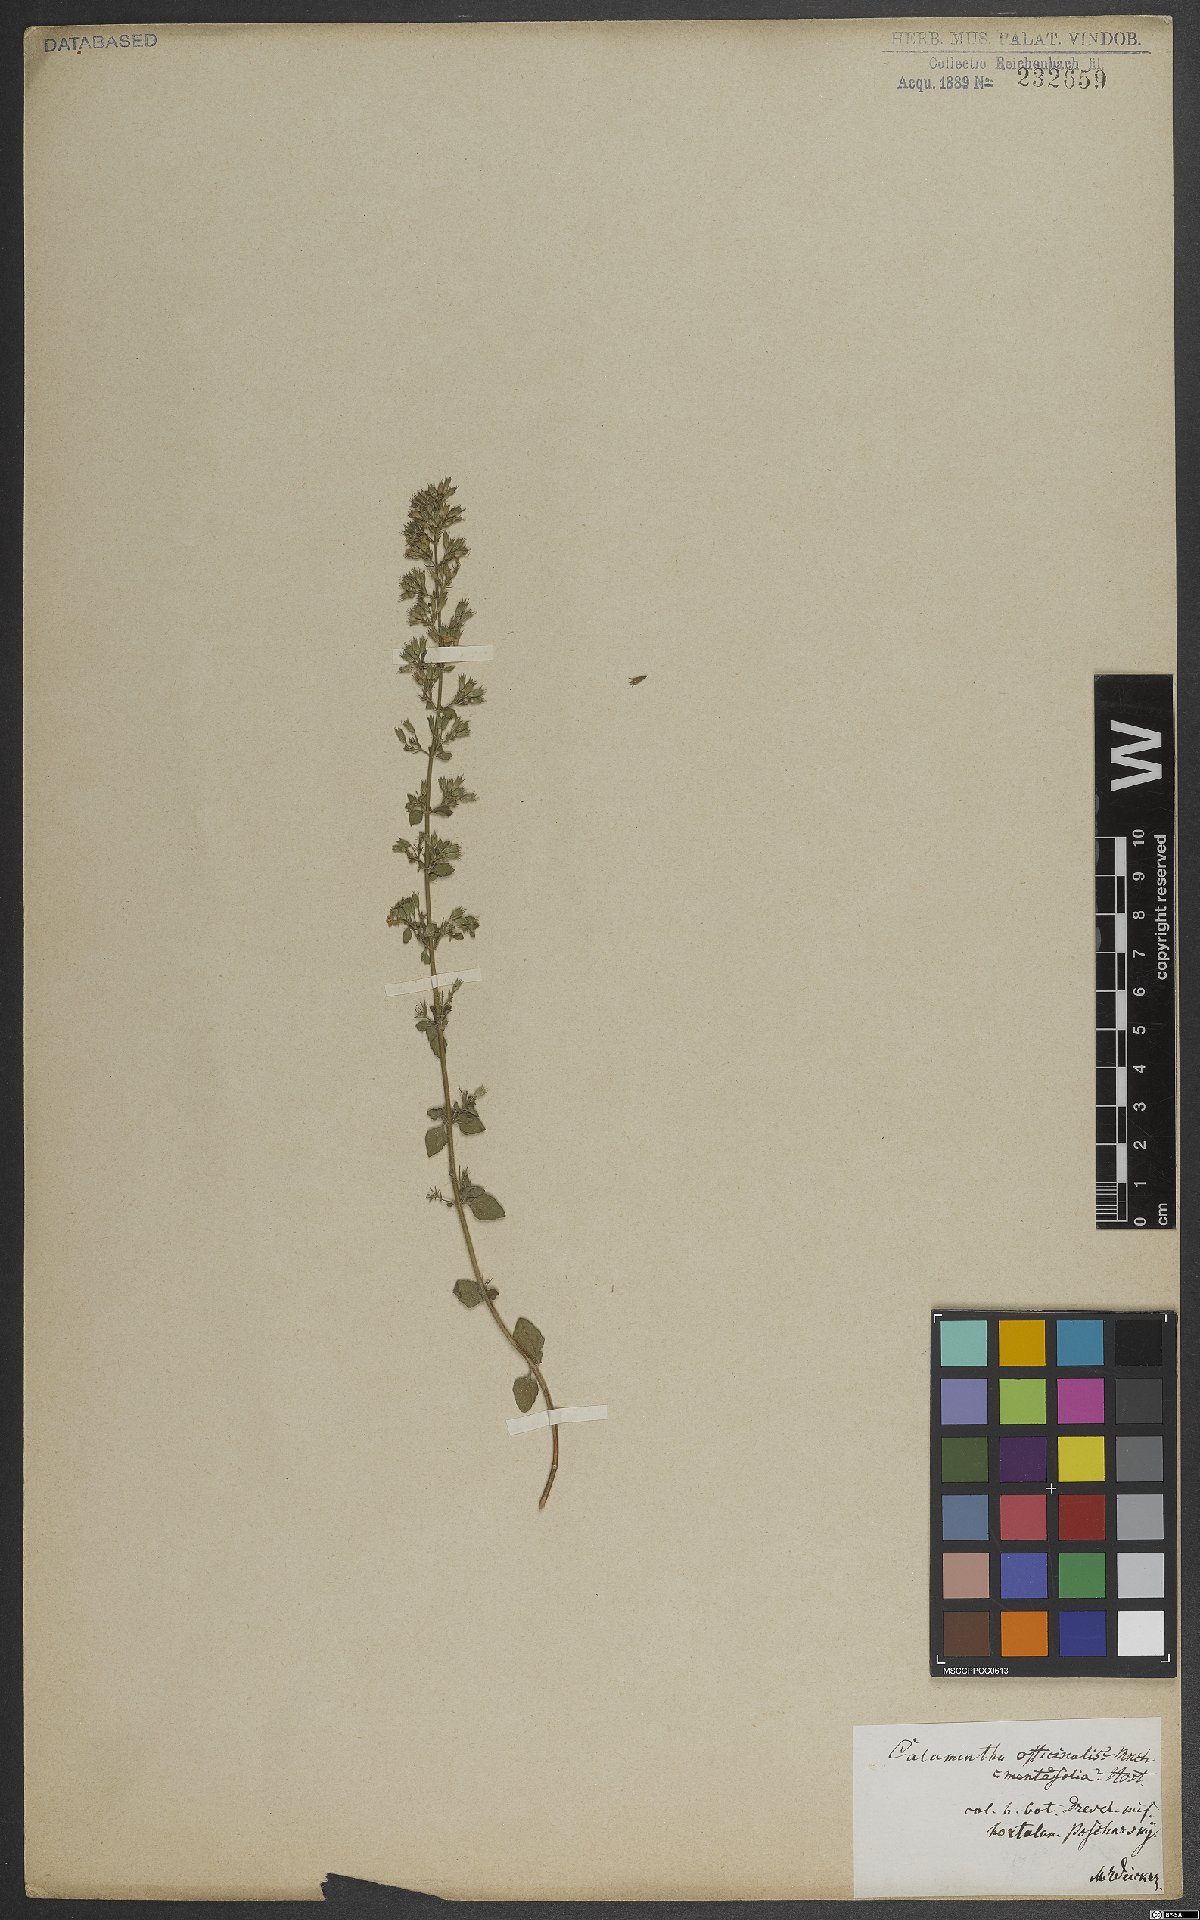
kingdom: Plantae
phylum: Tracheophyta
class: Magnoliopsida
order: Lamiales
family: Lamiaceae
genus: Clinopodium
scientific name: Clinopodium nepeta
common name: Lesser calamint
